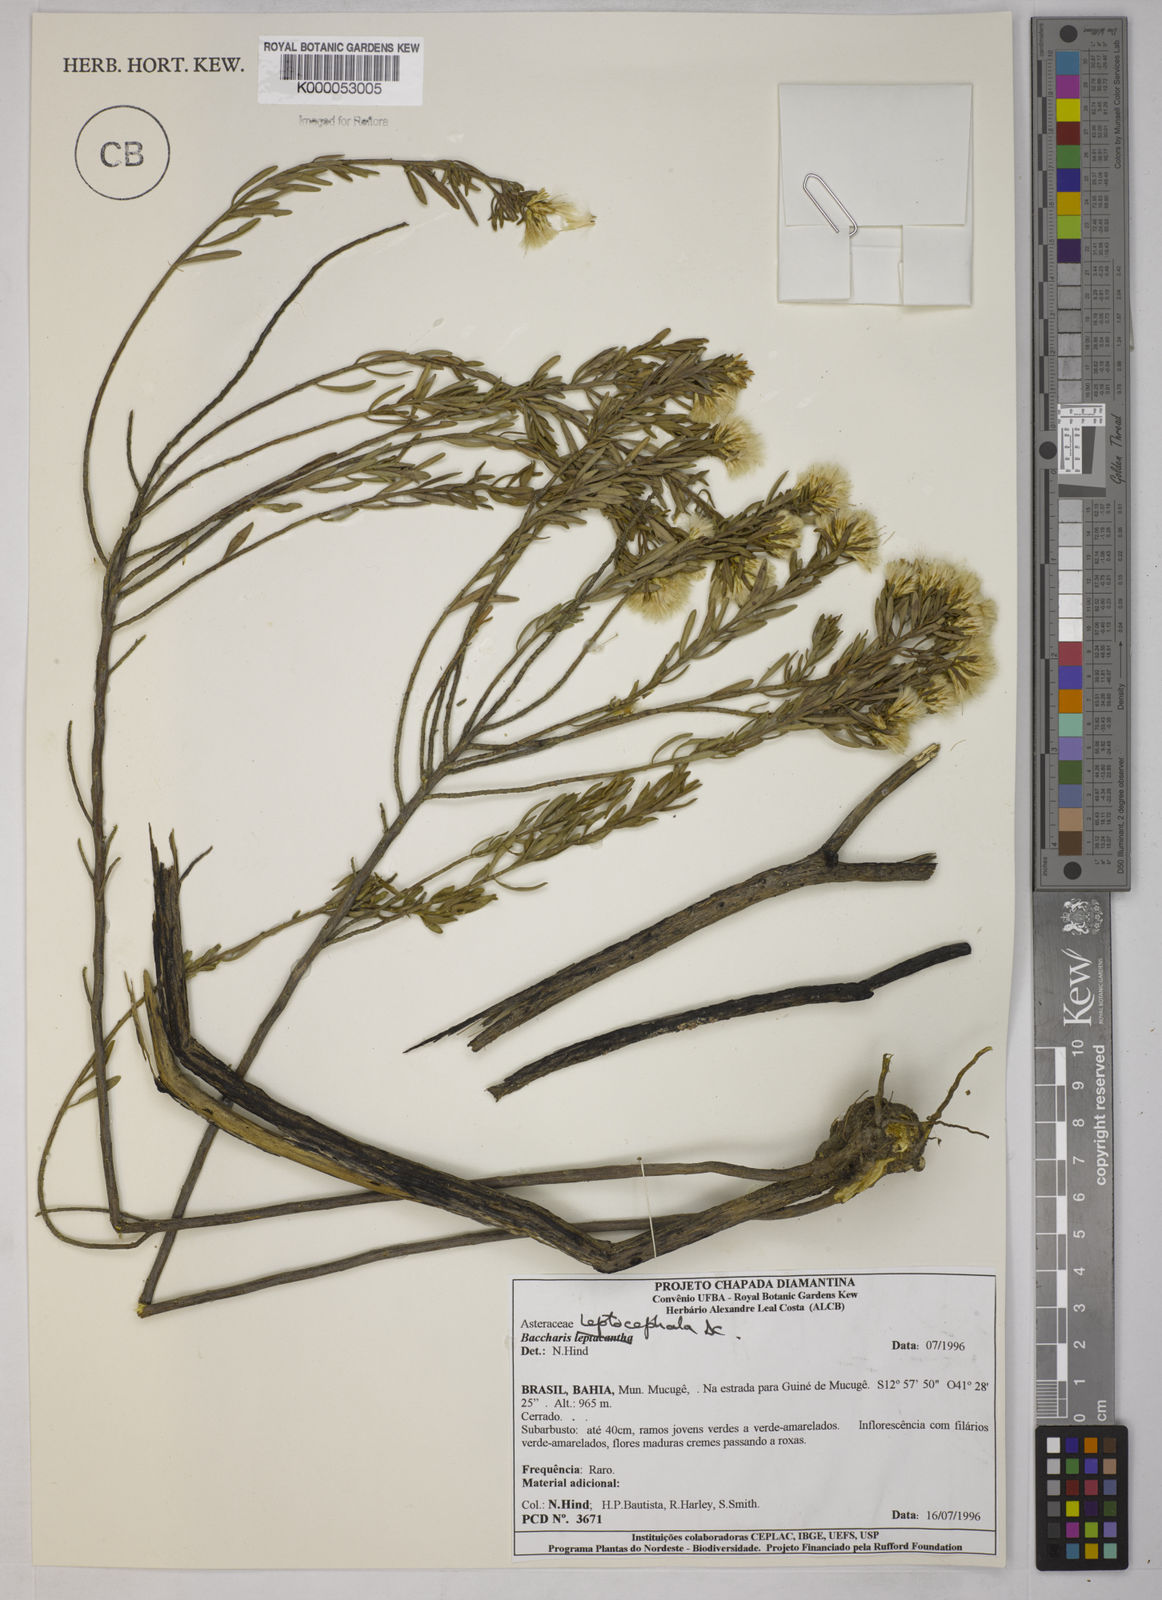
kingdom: Plantae
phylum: Tracheophyta
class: Magnoliopsida
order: Asterales
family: Asteraceae
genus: Baccharis
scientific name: Baccharis leptocephala
